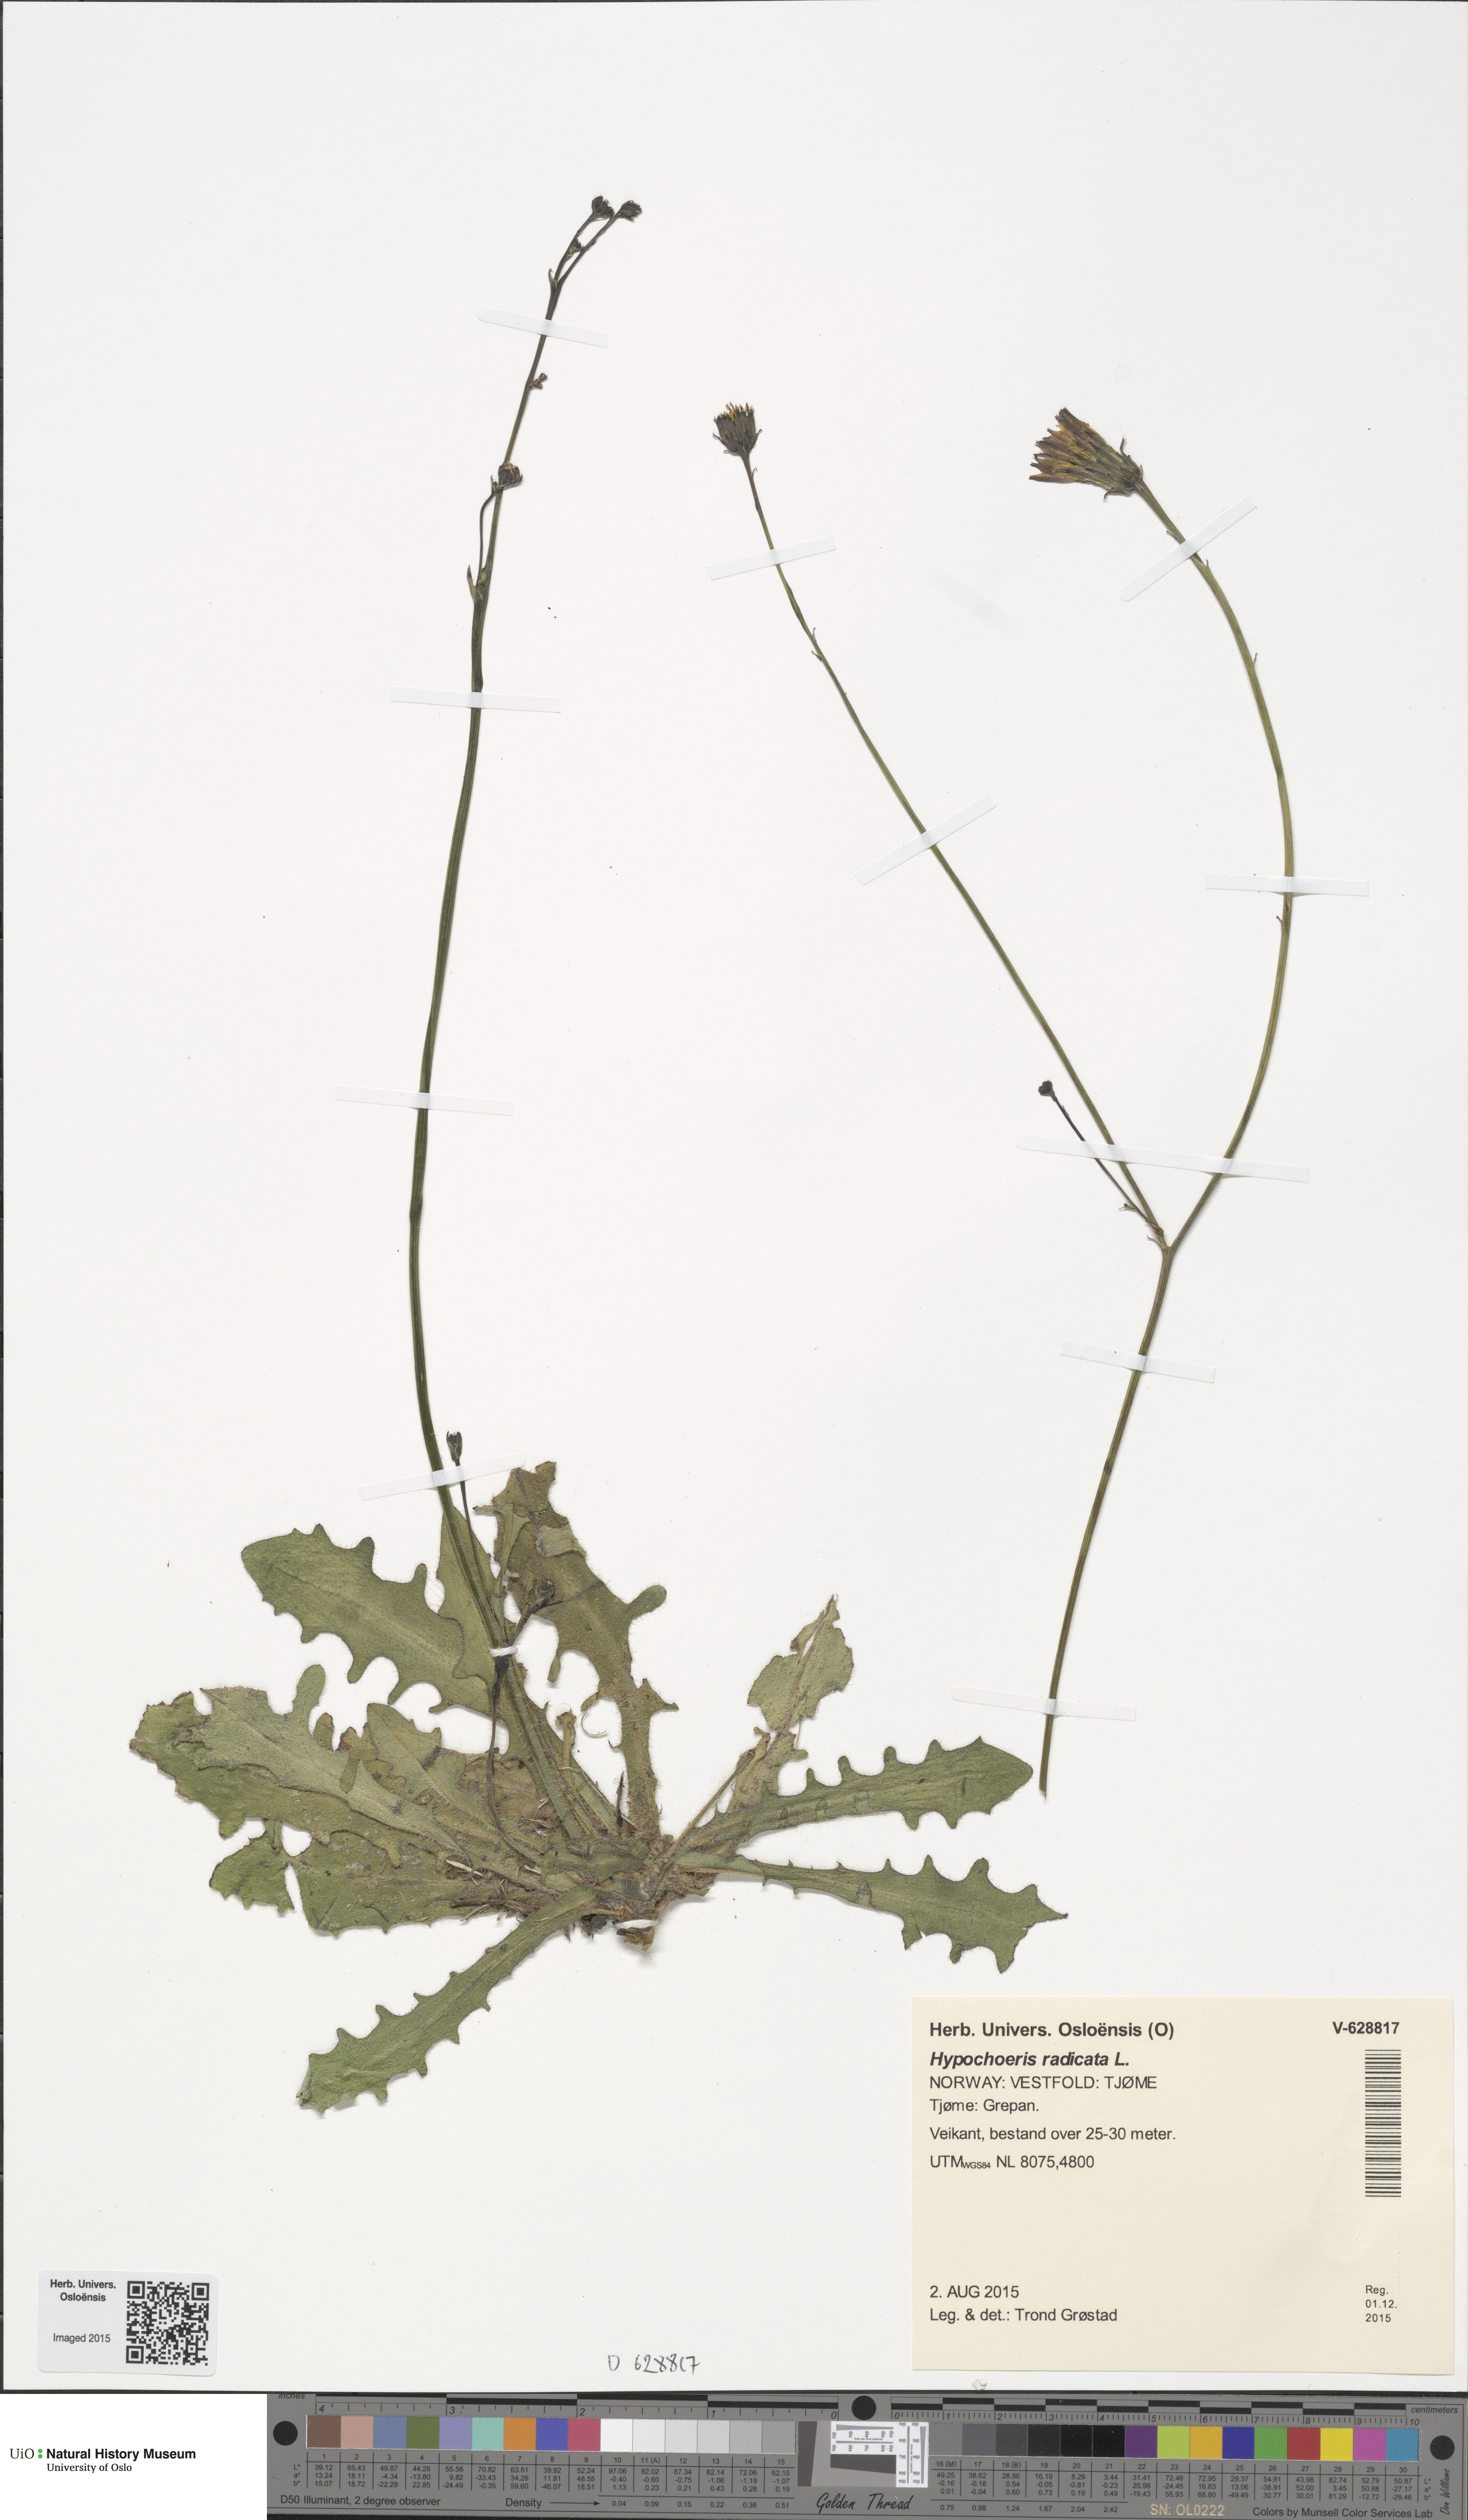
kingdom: Plantae
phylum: Tracheophyta
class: Magnoliopsida
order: Asterales
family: Asteraceae
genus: Hypochaeris
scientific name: Hypochaeris radicata
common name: Flatweed
